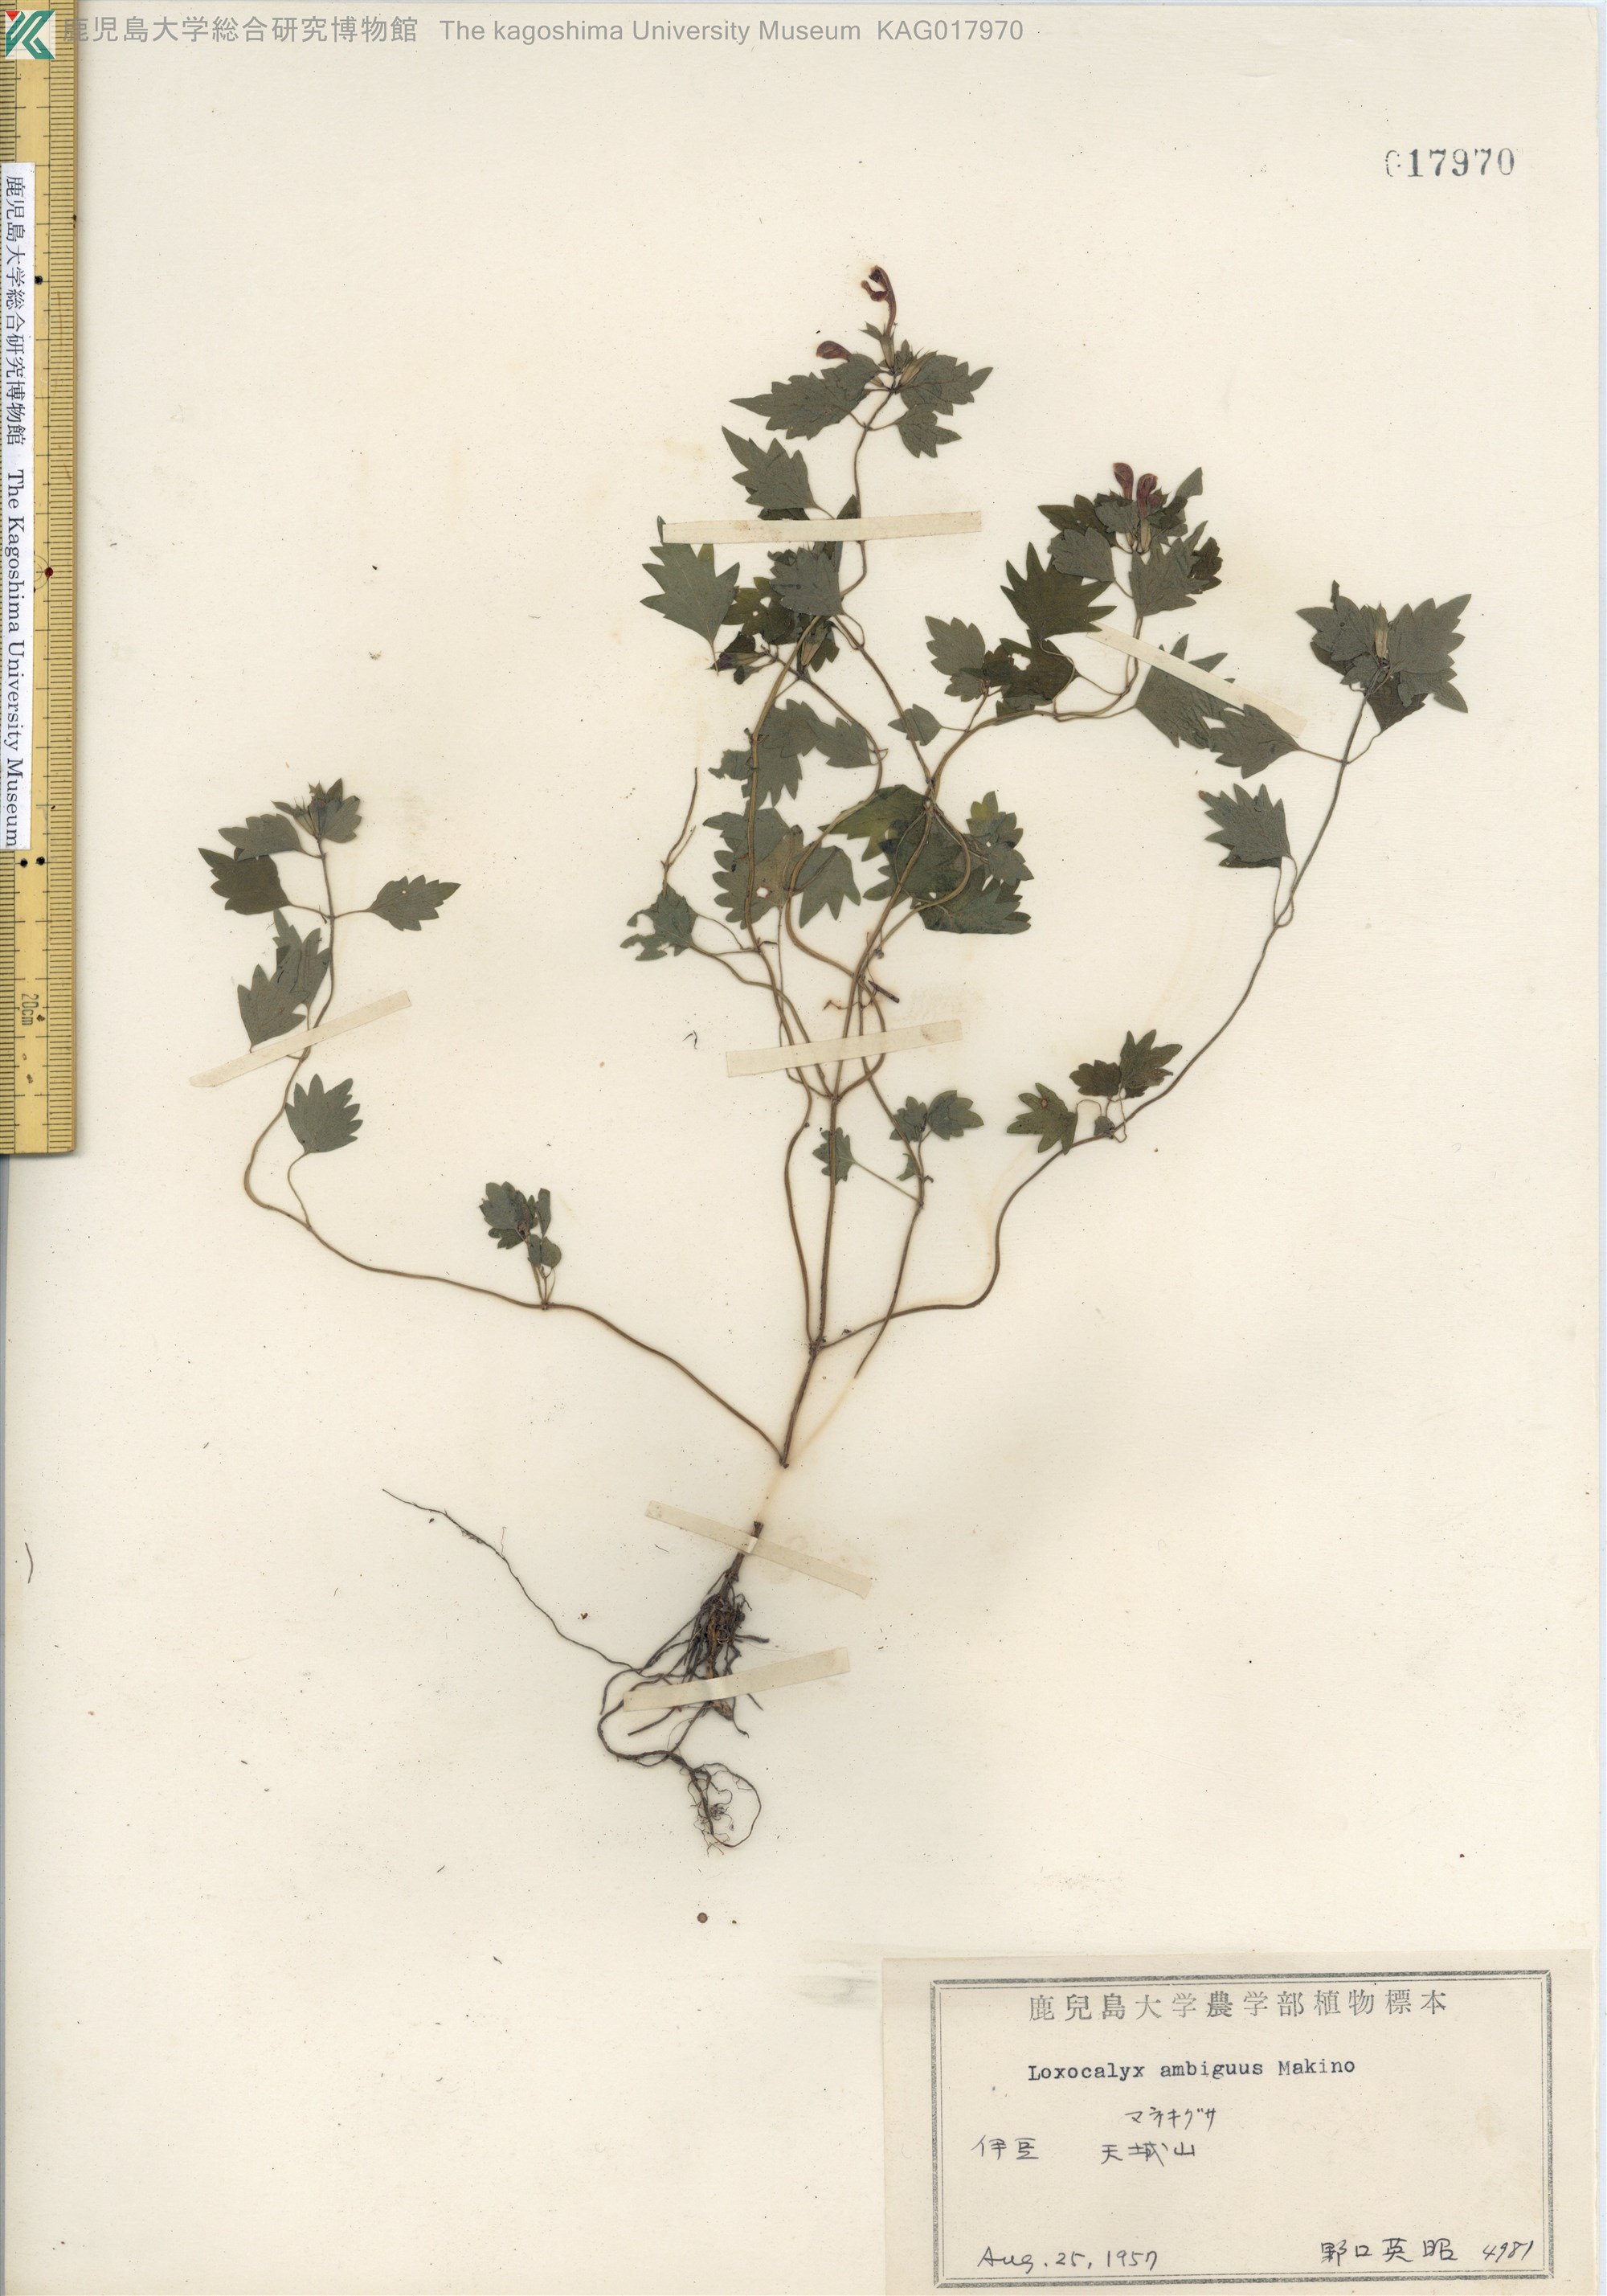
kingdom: Plantae
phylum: Tracheophyta
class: Magnoliopsida
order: Lamiales
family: Lamiaceae
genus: Loxocalyx
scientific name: Loxocalyx ambiguus
